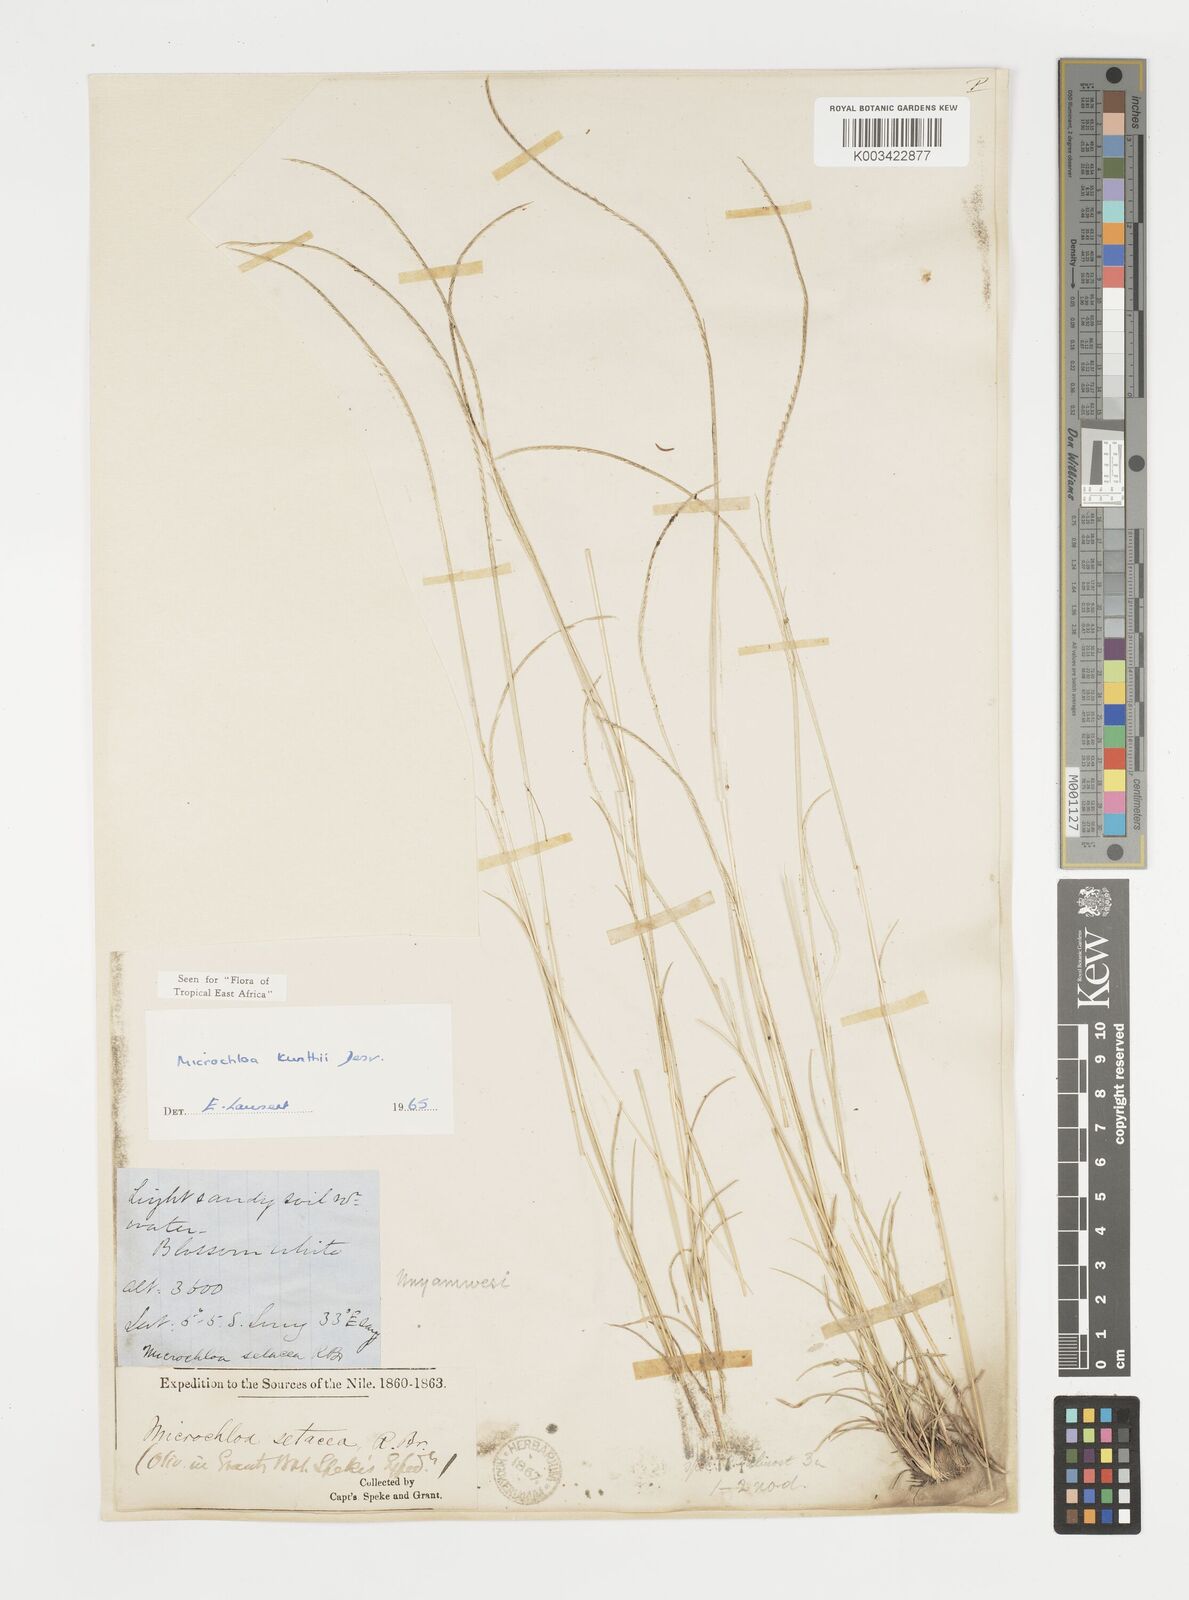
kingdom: Plantae
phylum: Tracheophyta
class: Liliopsida
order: Poales
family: Poaceae
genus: Microchloa
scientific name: Microchloa kunthii
